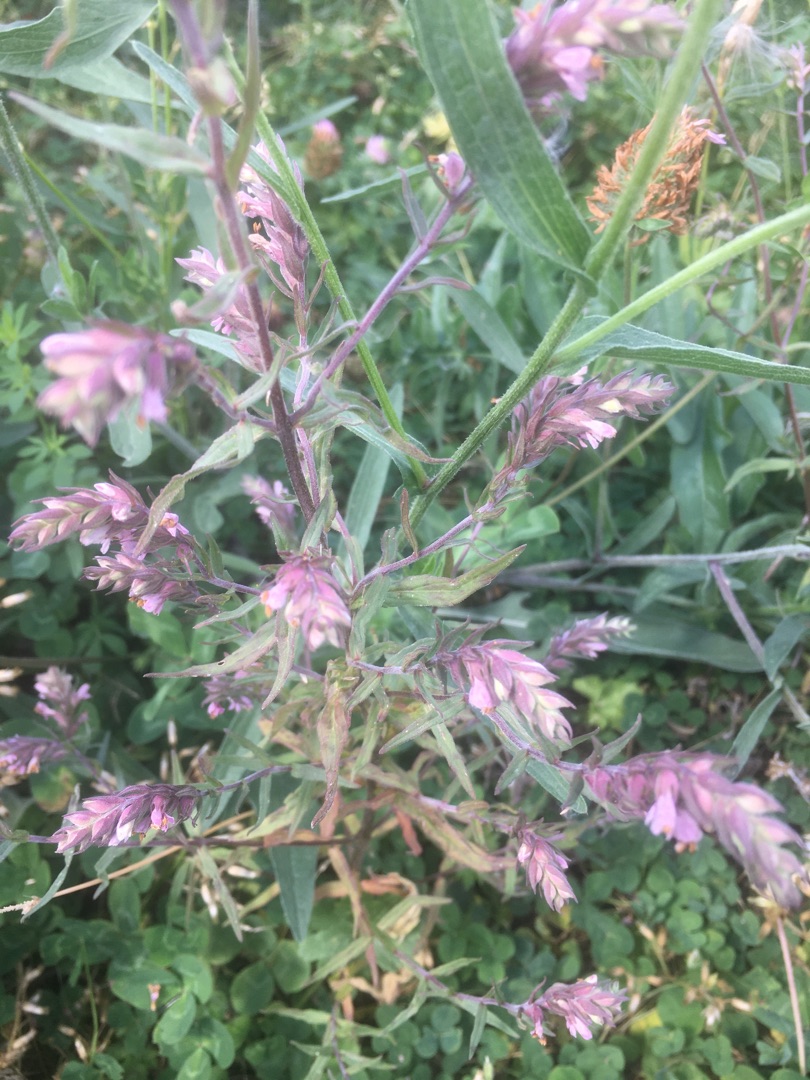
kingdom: Plantae
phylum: Tracheophyta
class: Magnoliopsida
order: Lamiales
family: Orobanchaceae
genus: Odontites
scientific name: Odontites vulgaris
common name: Høst-rødtop
